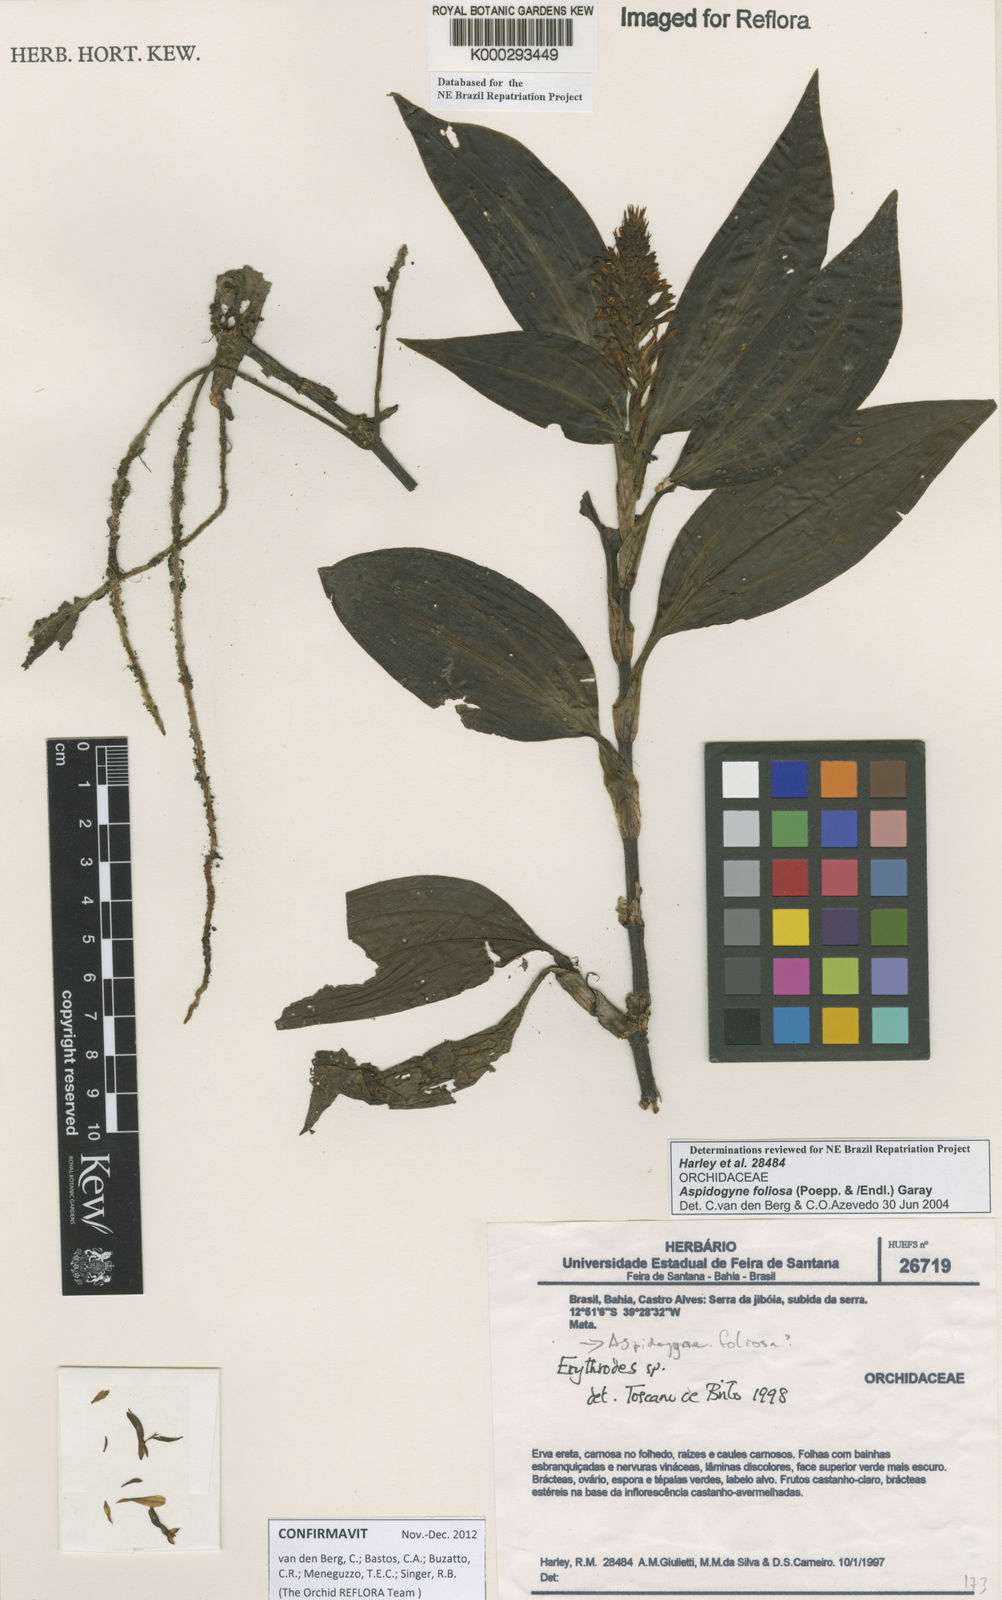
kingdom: Plantae
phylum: Tracheophyta
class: Liliopsida
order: Asparagales
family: Orchidaceae
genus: Aspidogyne
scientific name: Aspidogyne foliosa
